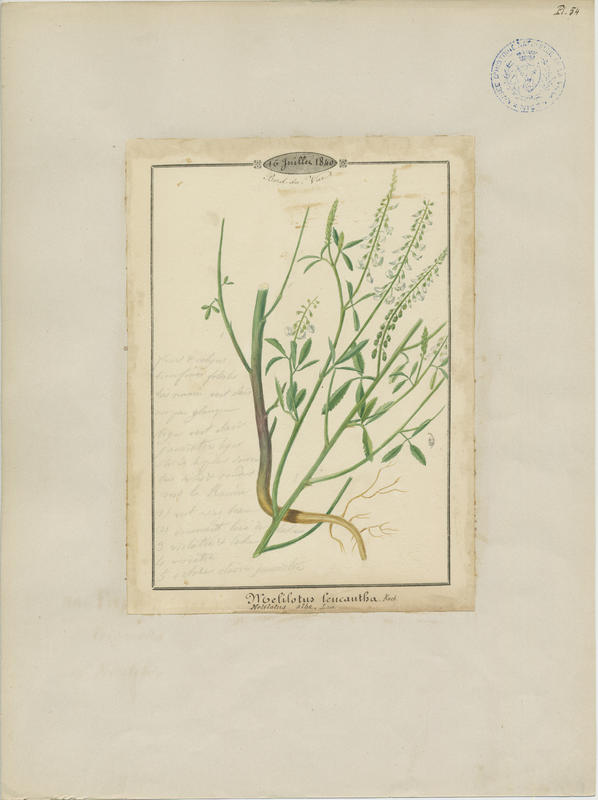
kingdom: Plantae
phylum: Tracheophyta
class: Magnoliopsida
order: Fabales
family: Fabaceae
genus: Melilotus
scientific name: Melilotus albus
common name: White melilot
